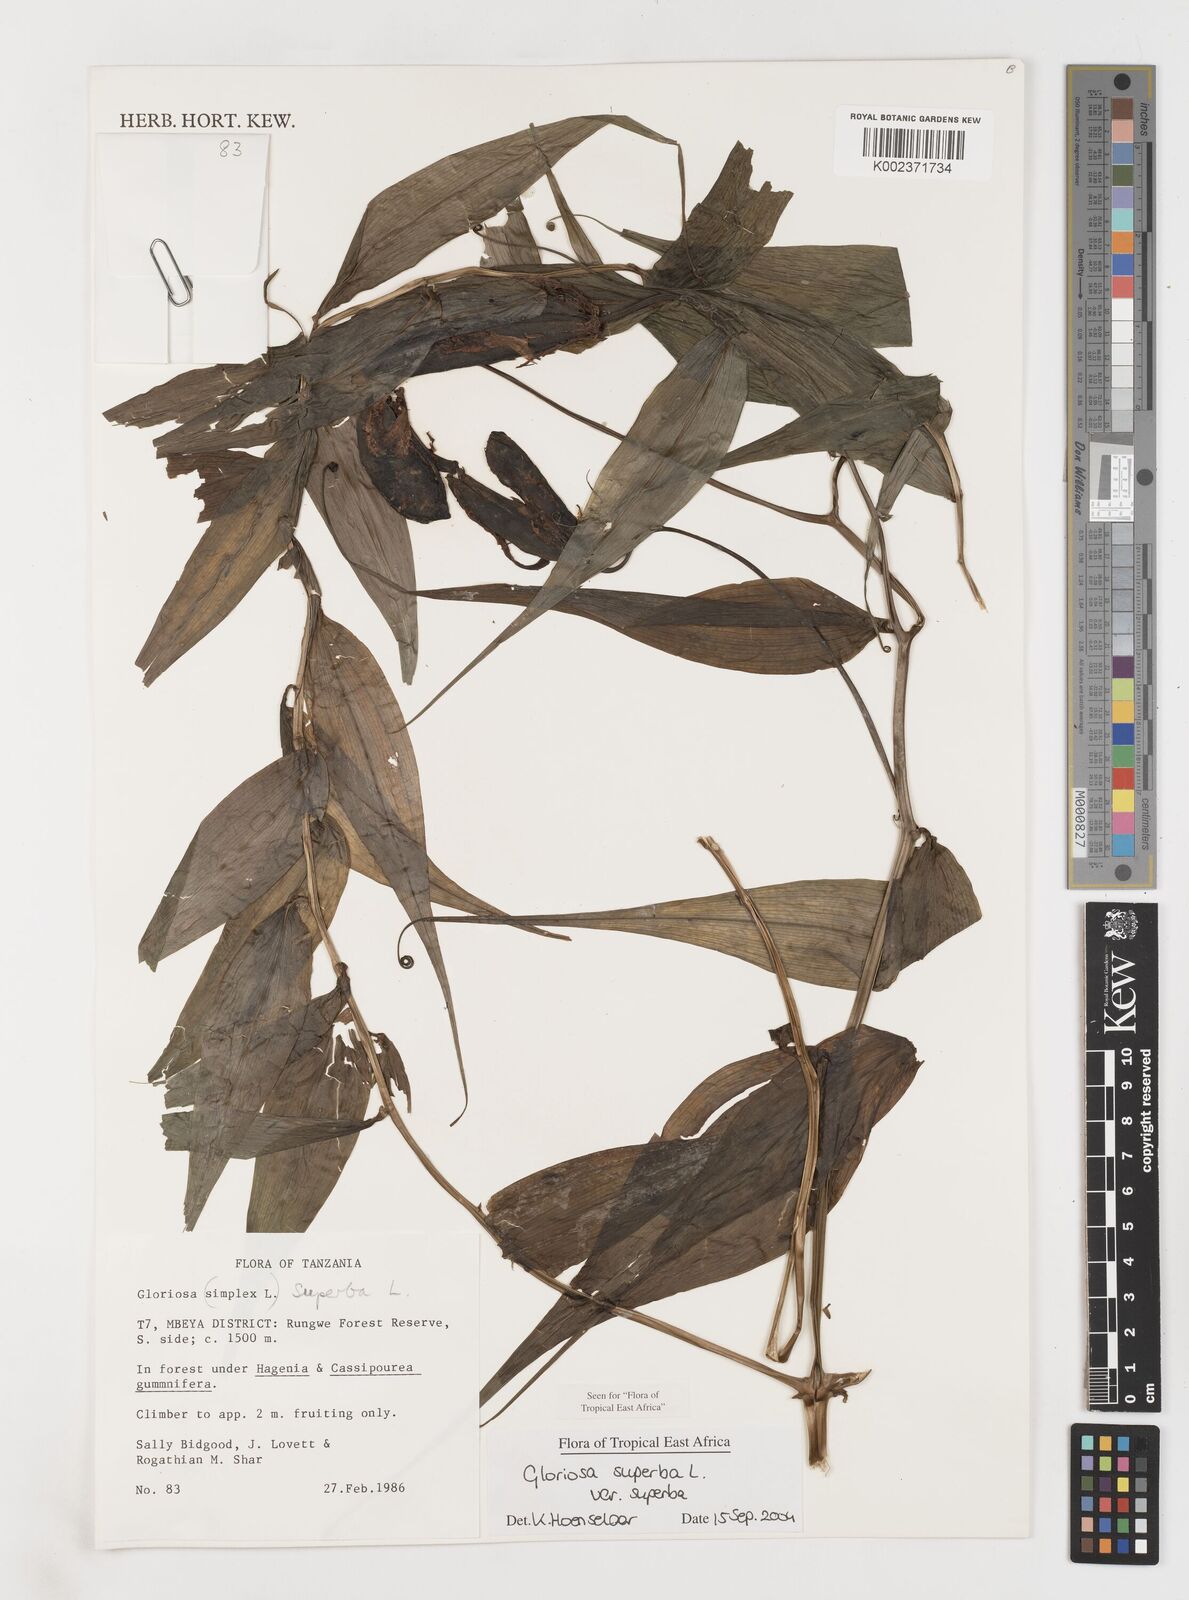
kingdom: Plantae
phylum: Tracheophyta
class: Liliopsida
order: Liliales
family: Colchicaceae
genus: Gloriosa
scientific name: Gloriosa simplex
